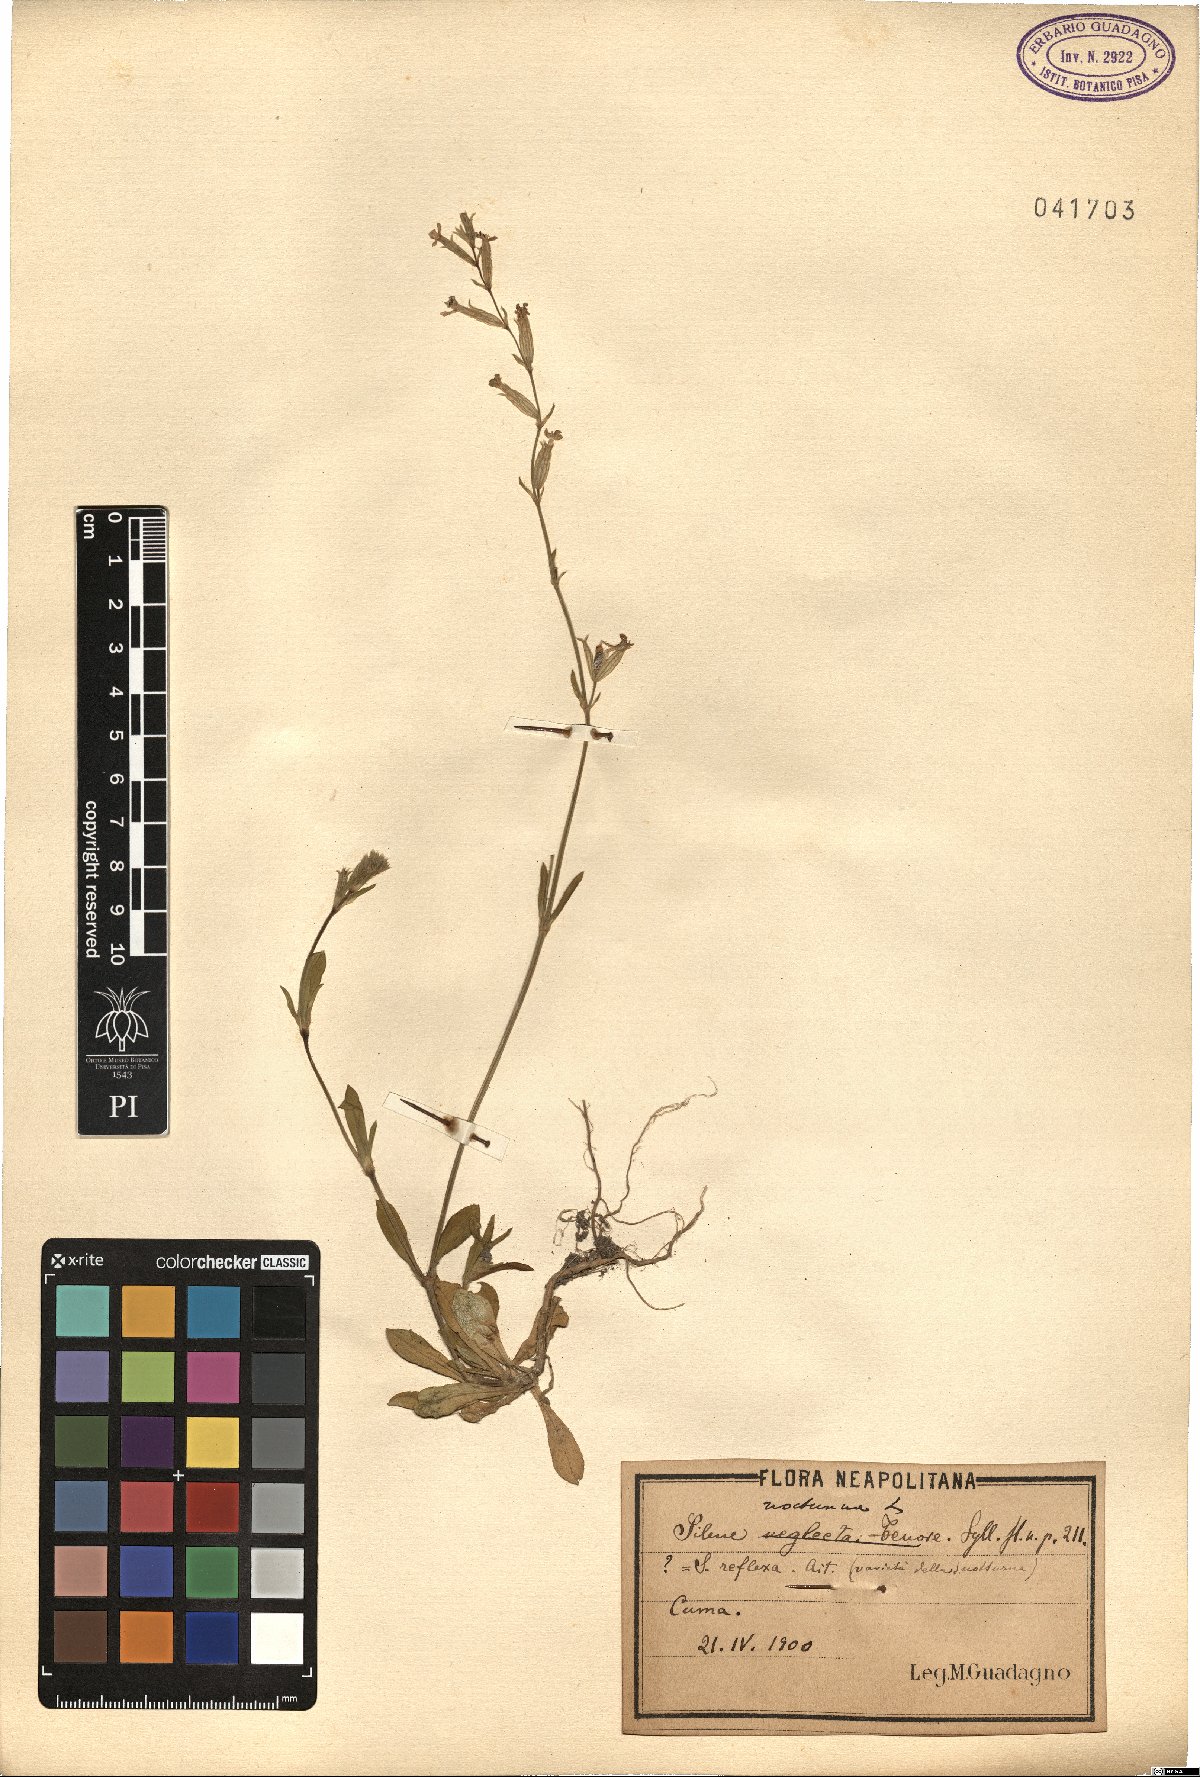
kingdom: Plantae
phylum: Tracheophyta
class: Magnoliopsida
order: Caryophyllales
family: Caryophyllaceae
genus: Silene
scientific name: Silene nocturna
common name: Mediterranean catchfly
